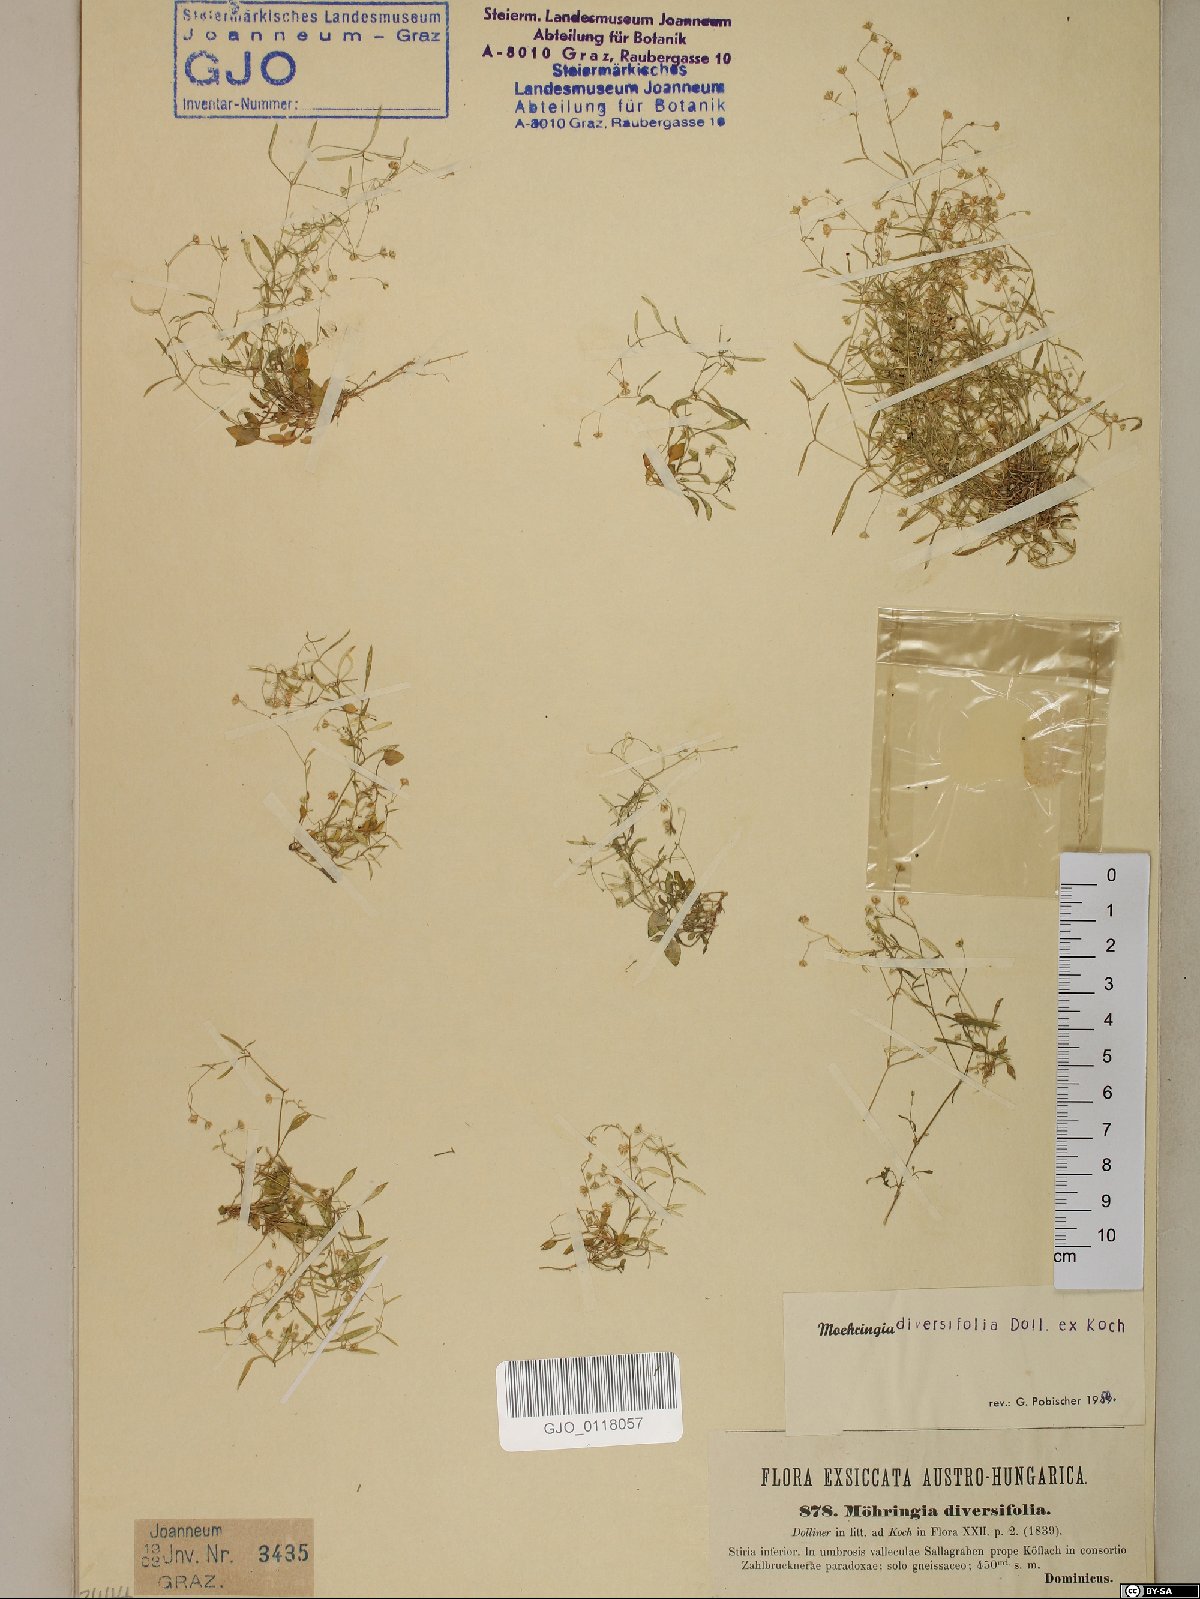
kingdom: Plantae
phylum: Tracheophyta
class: Magnoliopsida
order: Caryophyllales
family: Caryophyllaceae
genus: Moehringia
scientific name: Moehringia diversifolia
